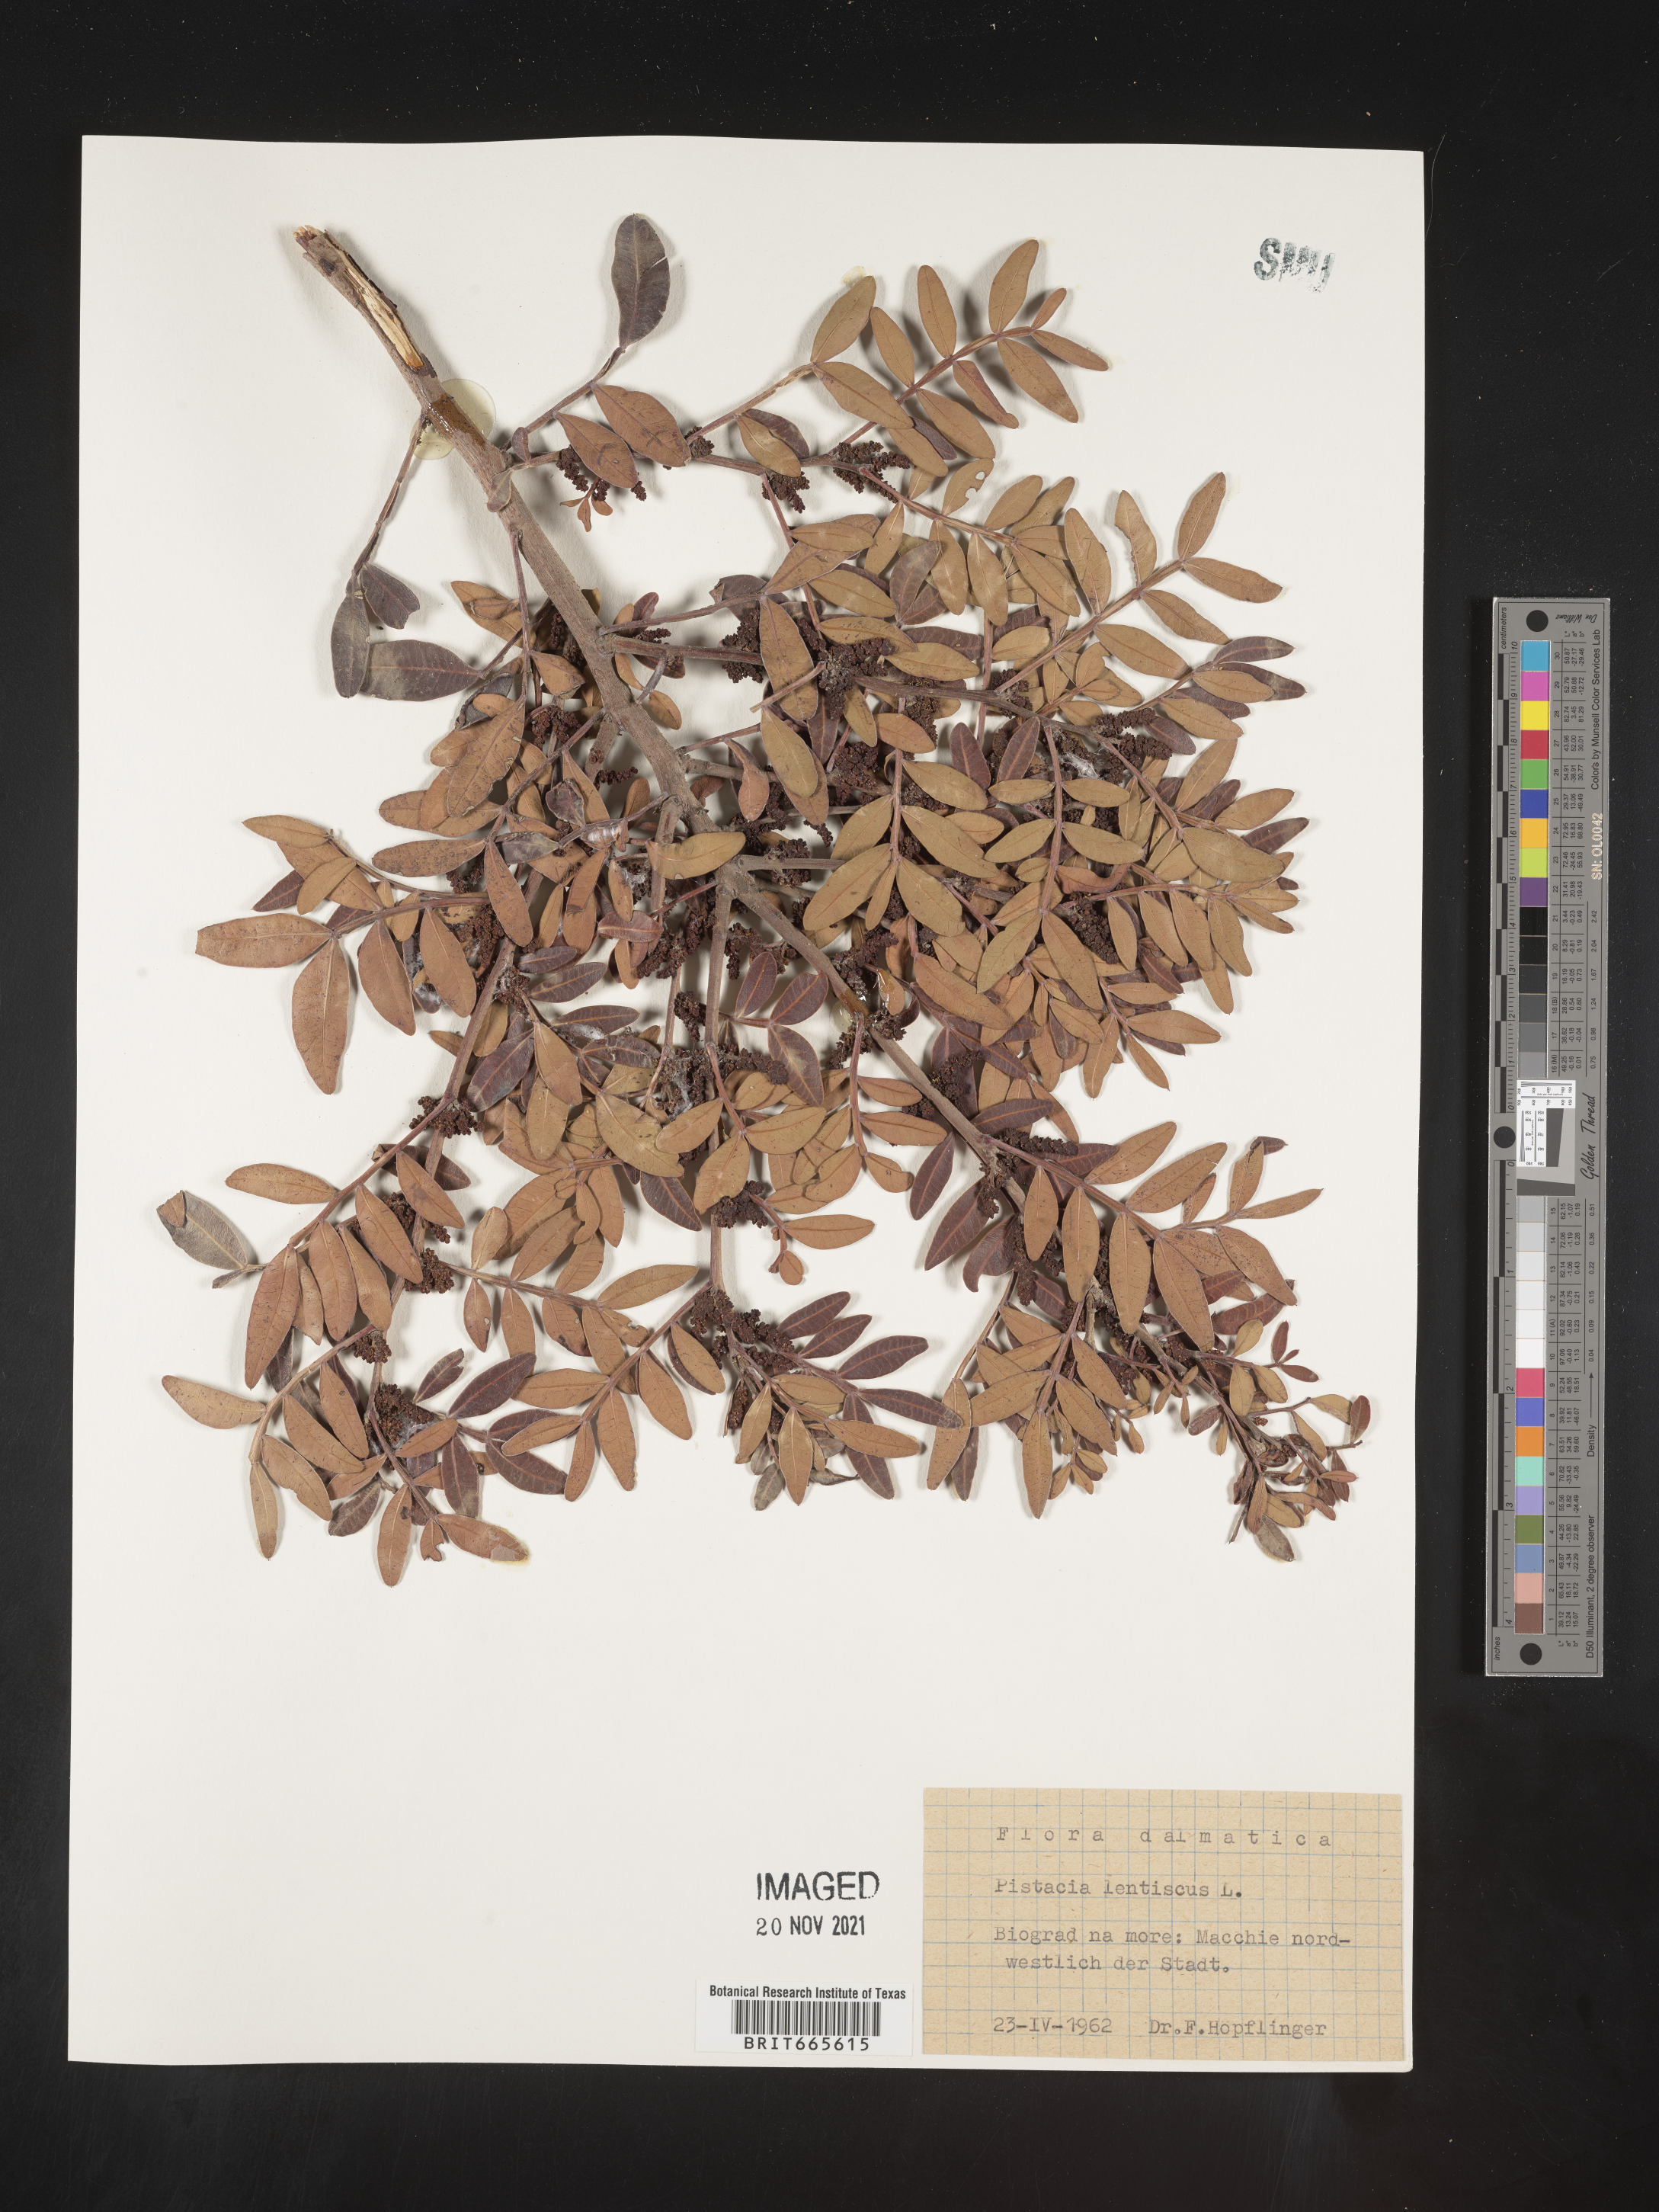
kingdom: Plantae
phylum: Tracheophyta
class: Magnoliopsida
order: Sapindales
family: Anacardiaceae
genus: Pistacia
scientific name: Pistacia
